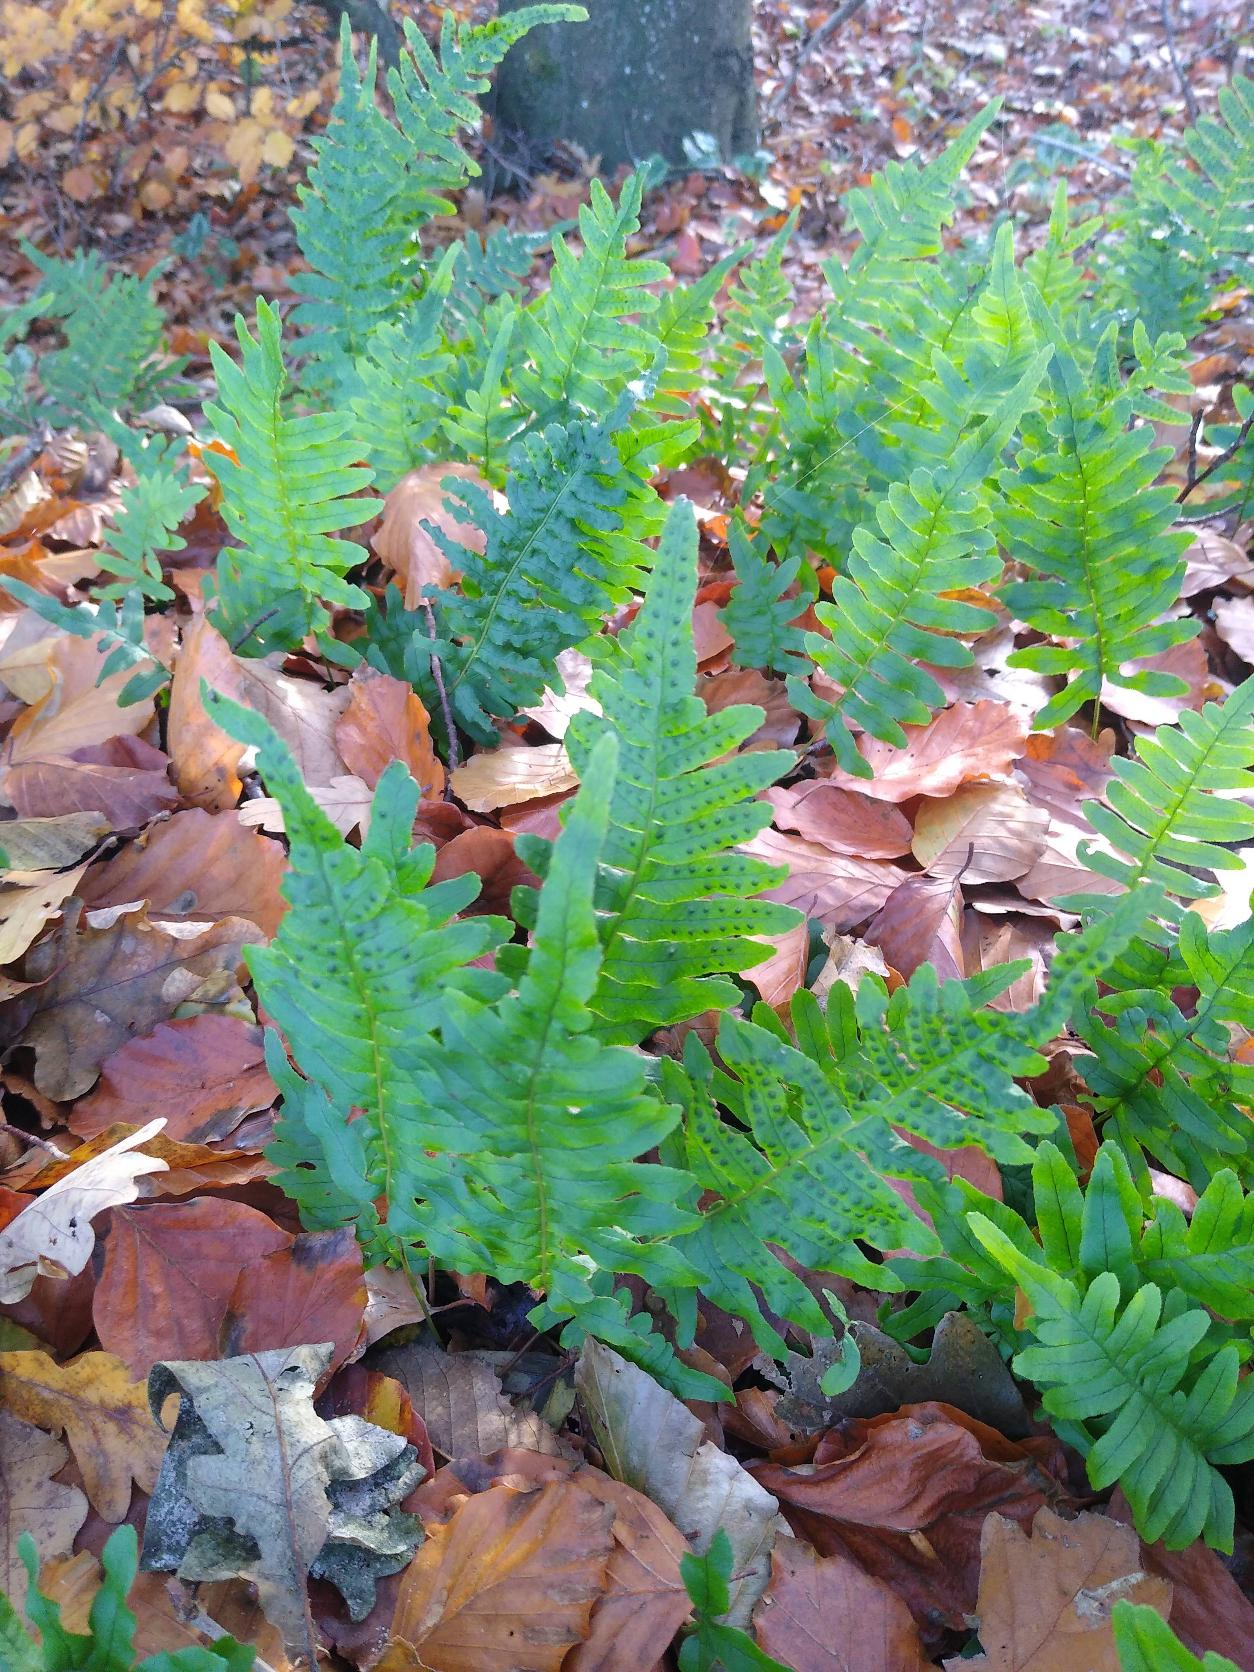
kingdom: Plantae
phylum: Tracheophyta
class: Polypodiopsida
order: Polypodiales
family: Polypodiaceae
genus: Polypodium
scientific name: Polypodium vulgare
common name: Almindelig engelsød
